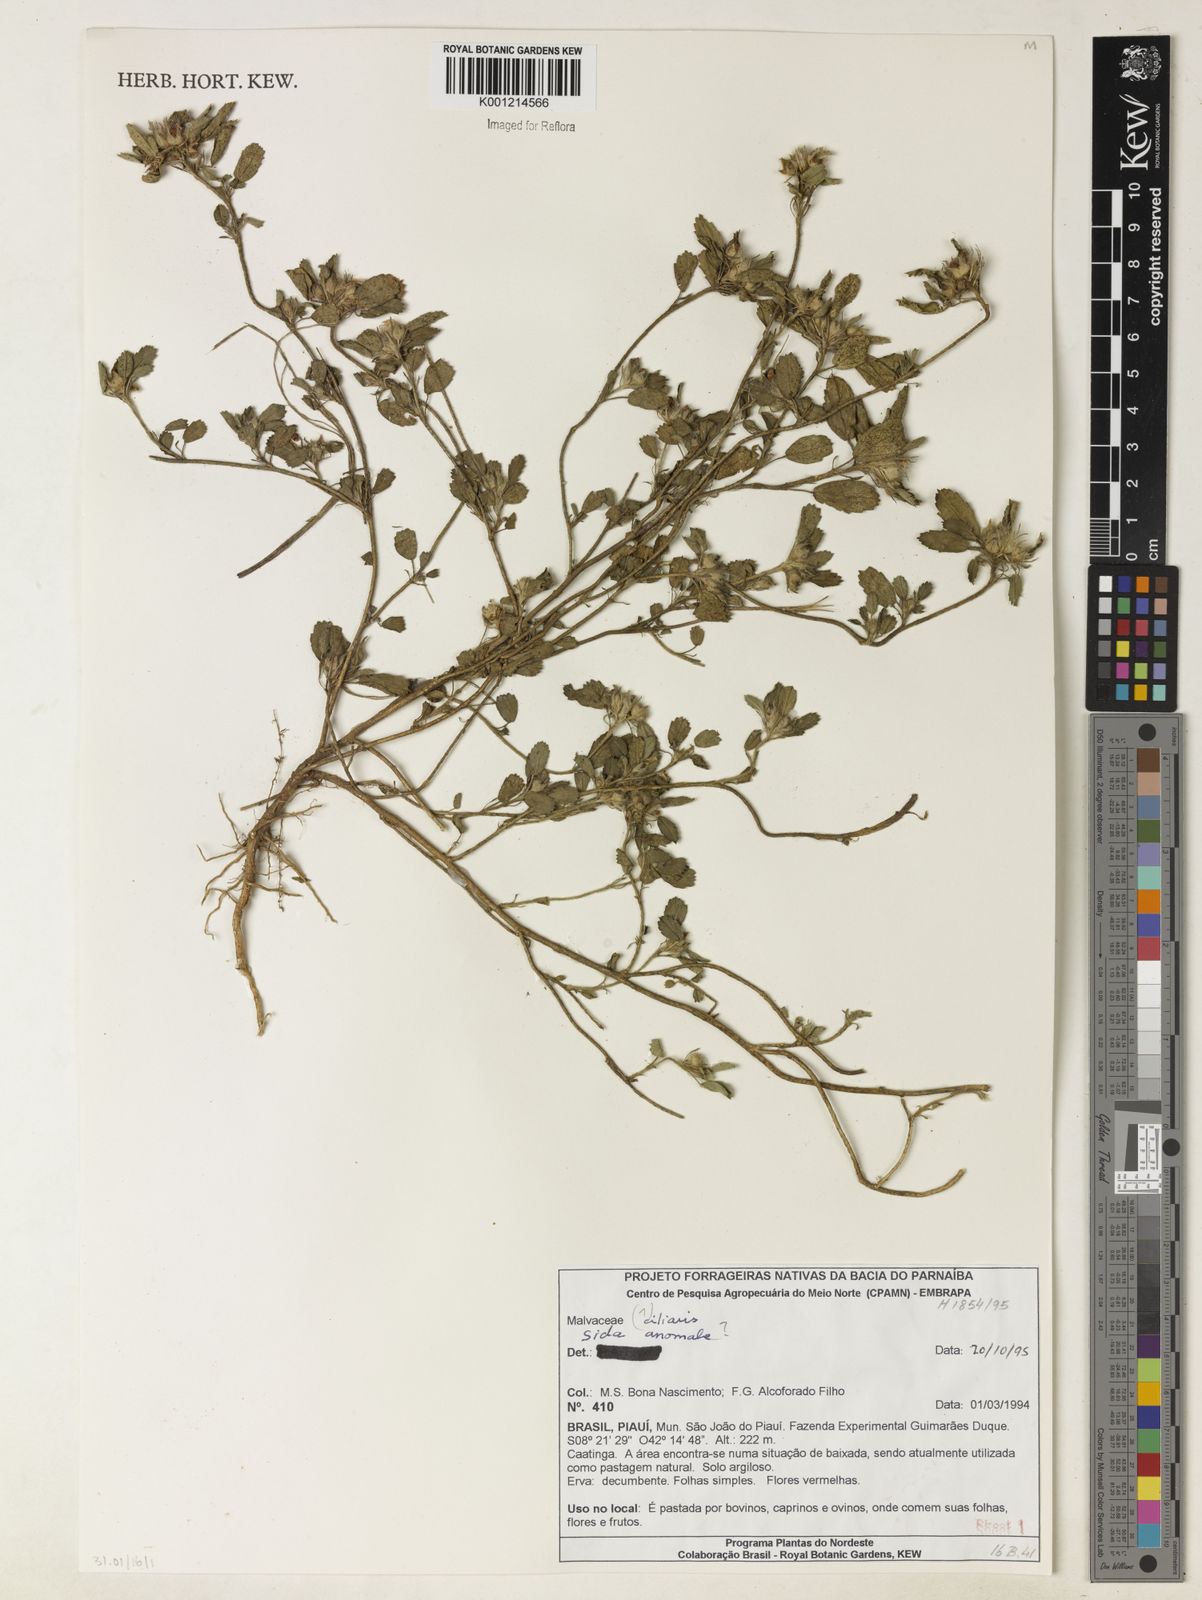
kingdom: Plantae
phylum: Tracheophyta
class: Magnoliopsida
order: Malvales
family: Malvaceae
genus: Sida
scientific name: Sida ciliaris
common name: Bracted fanpetals
